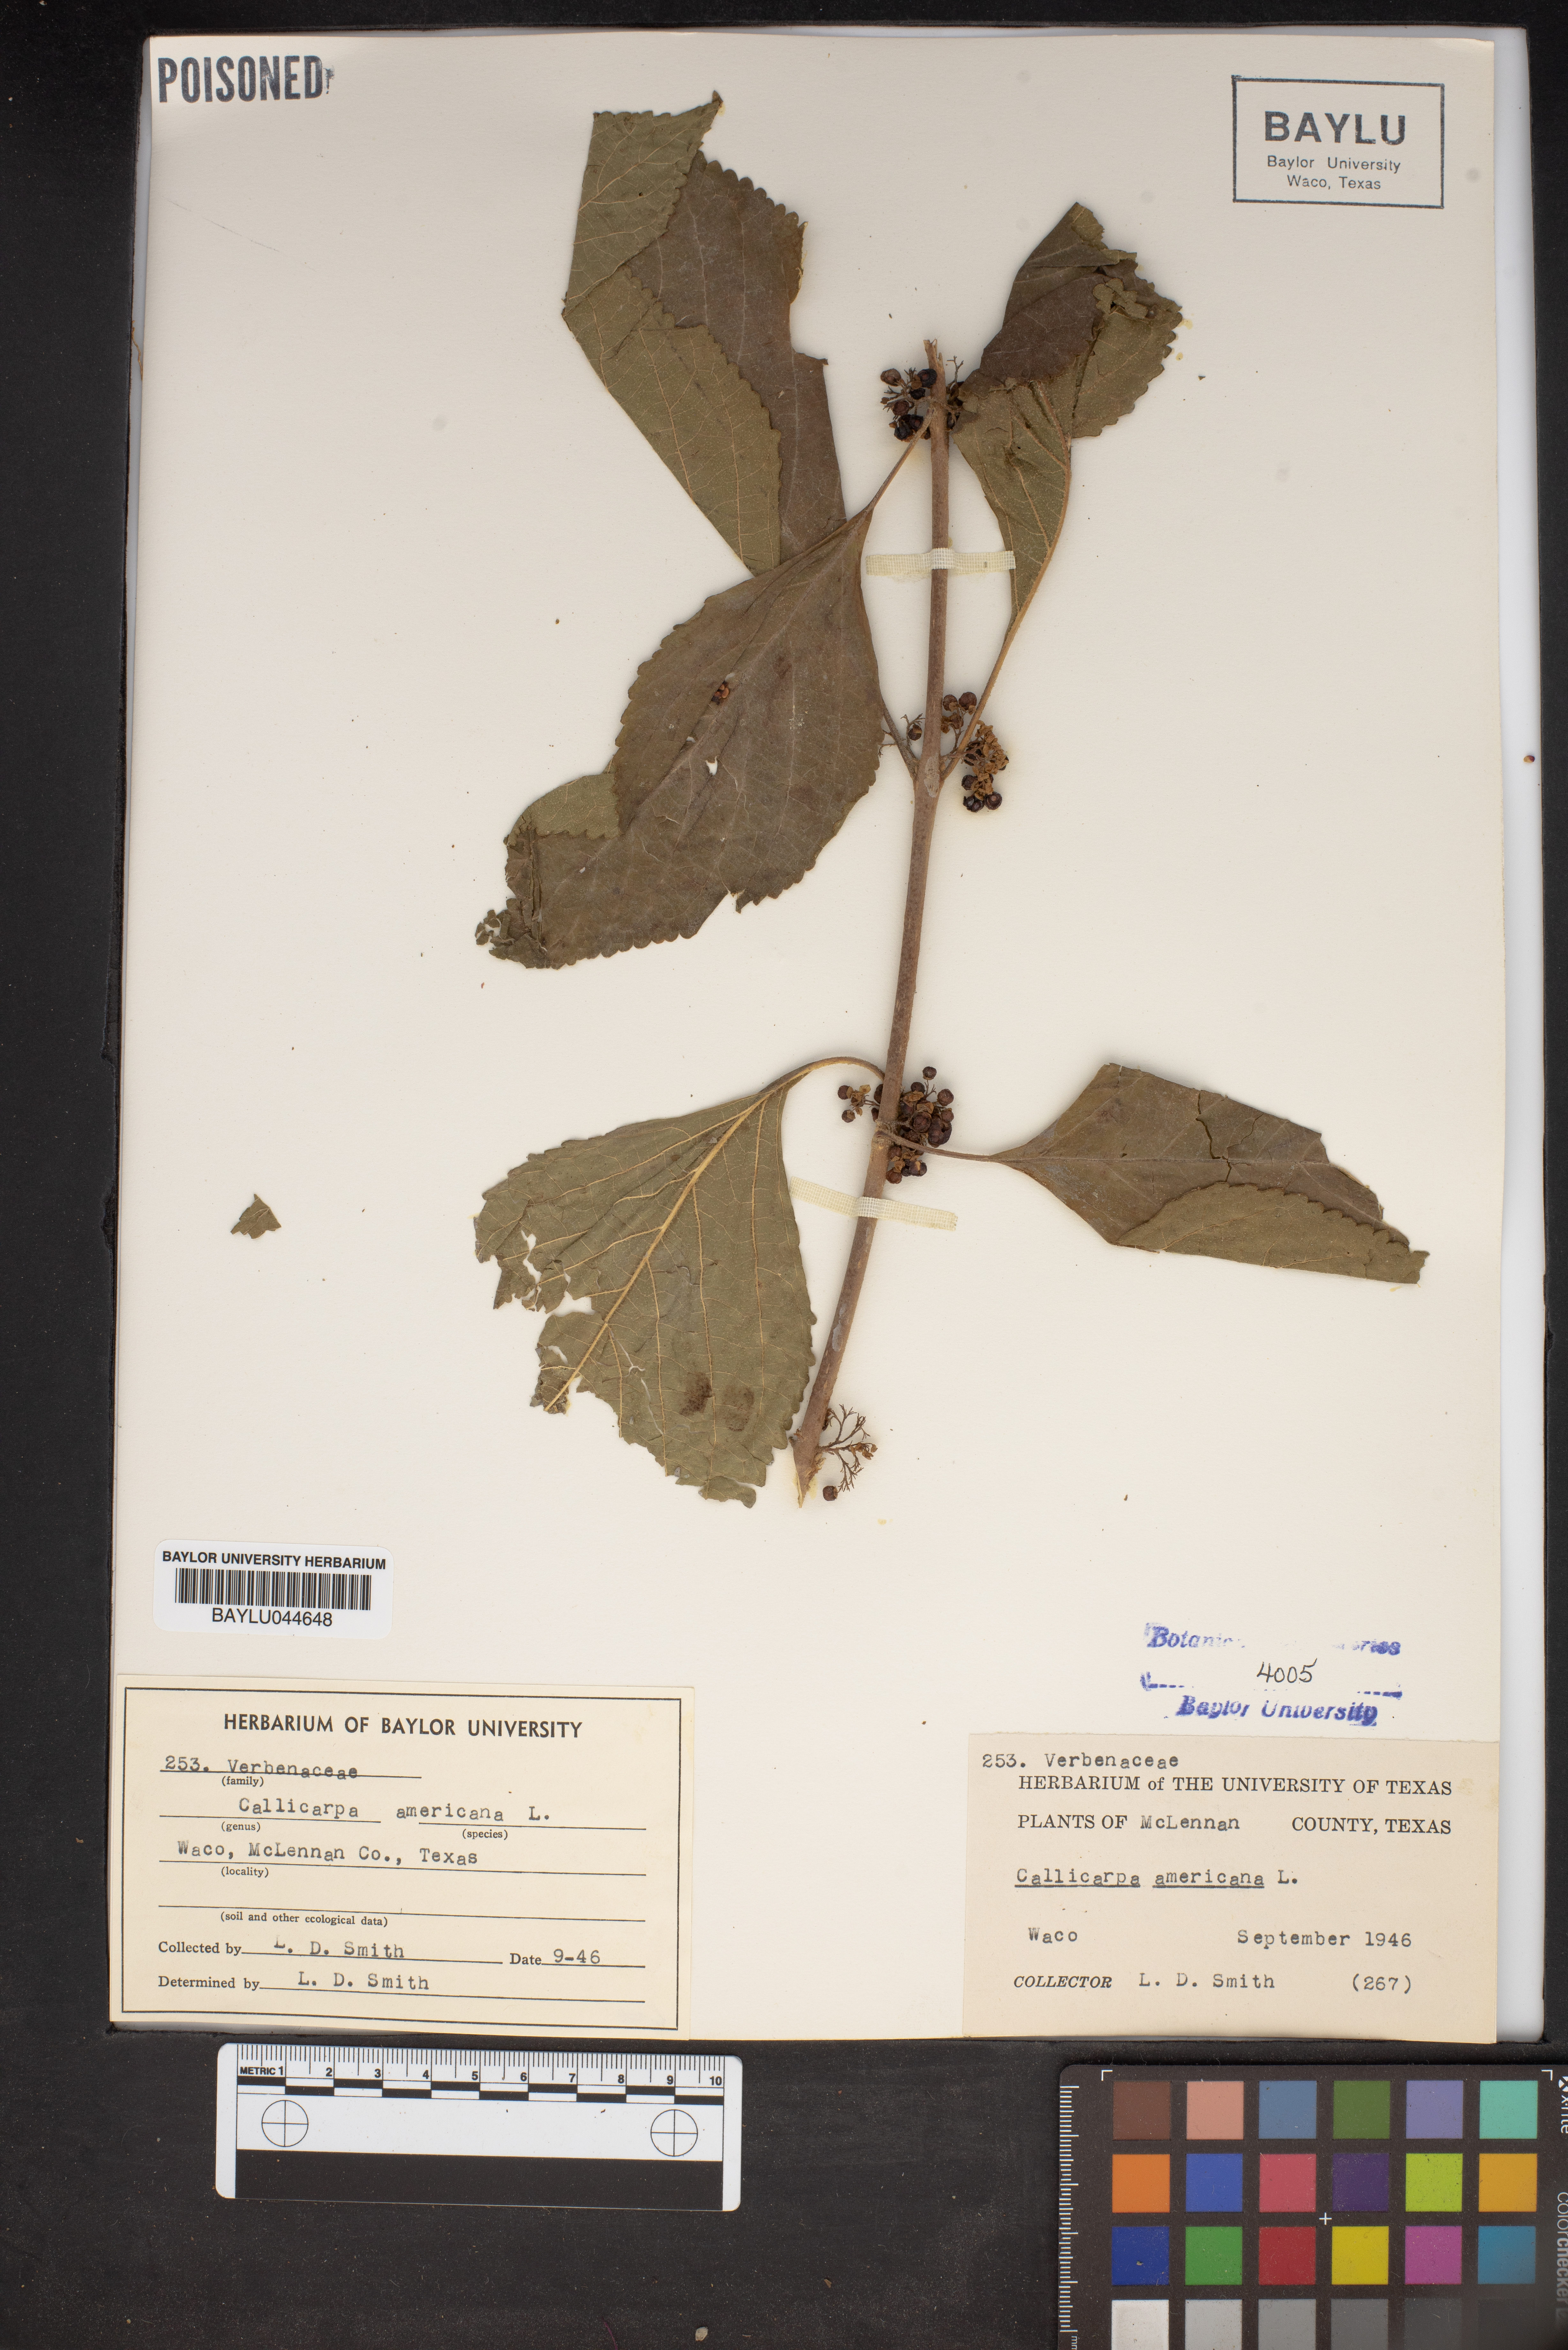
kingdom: Plantae
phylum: Tracheophyta
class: Magnoliopsida
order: Lamiales
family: Lamiaceae
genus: Callicarpa
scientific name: Callicarpa americana
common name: American beautyberry
